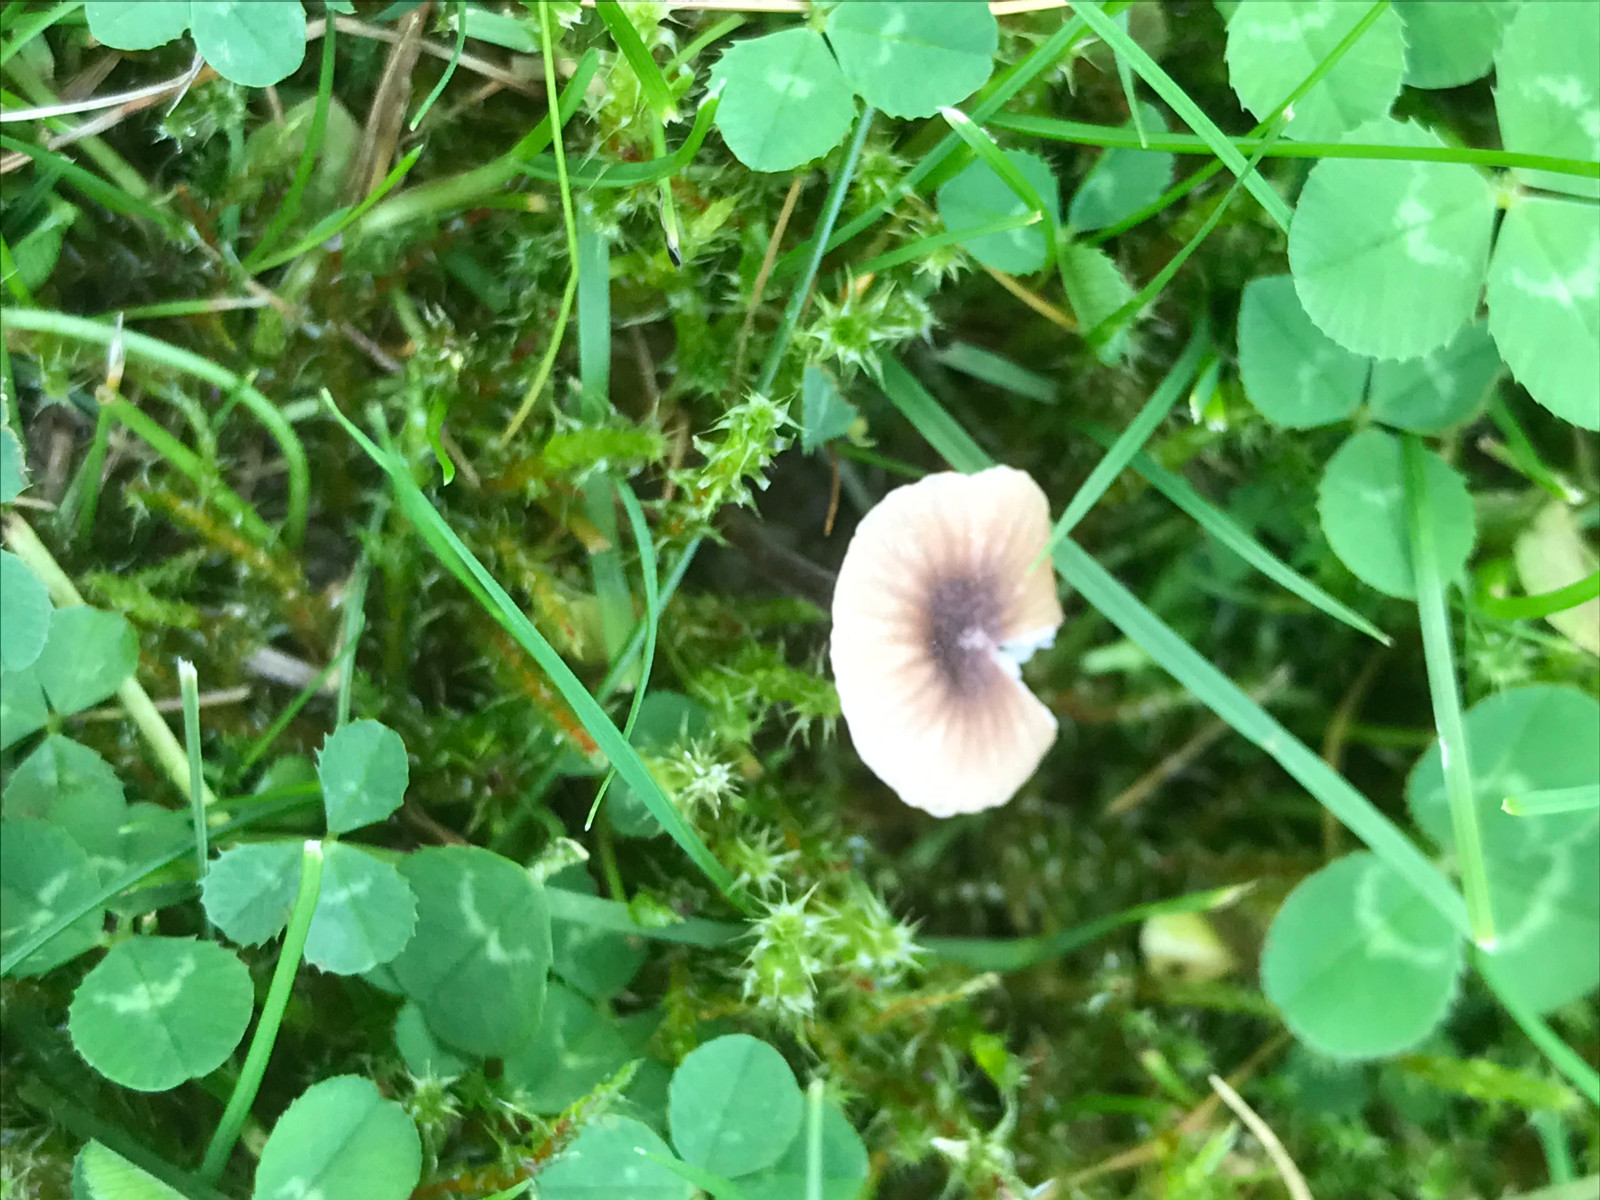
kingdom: Fungi
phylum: Basidiomycota
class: Agaricomycetes
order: Hymenochaetales
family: Rickenellaceae
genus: Rickenella
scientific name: Rickenella swartzii
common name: finstokket mosnavlehat
